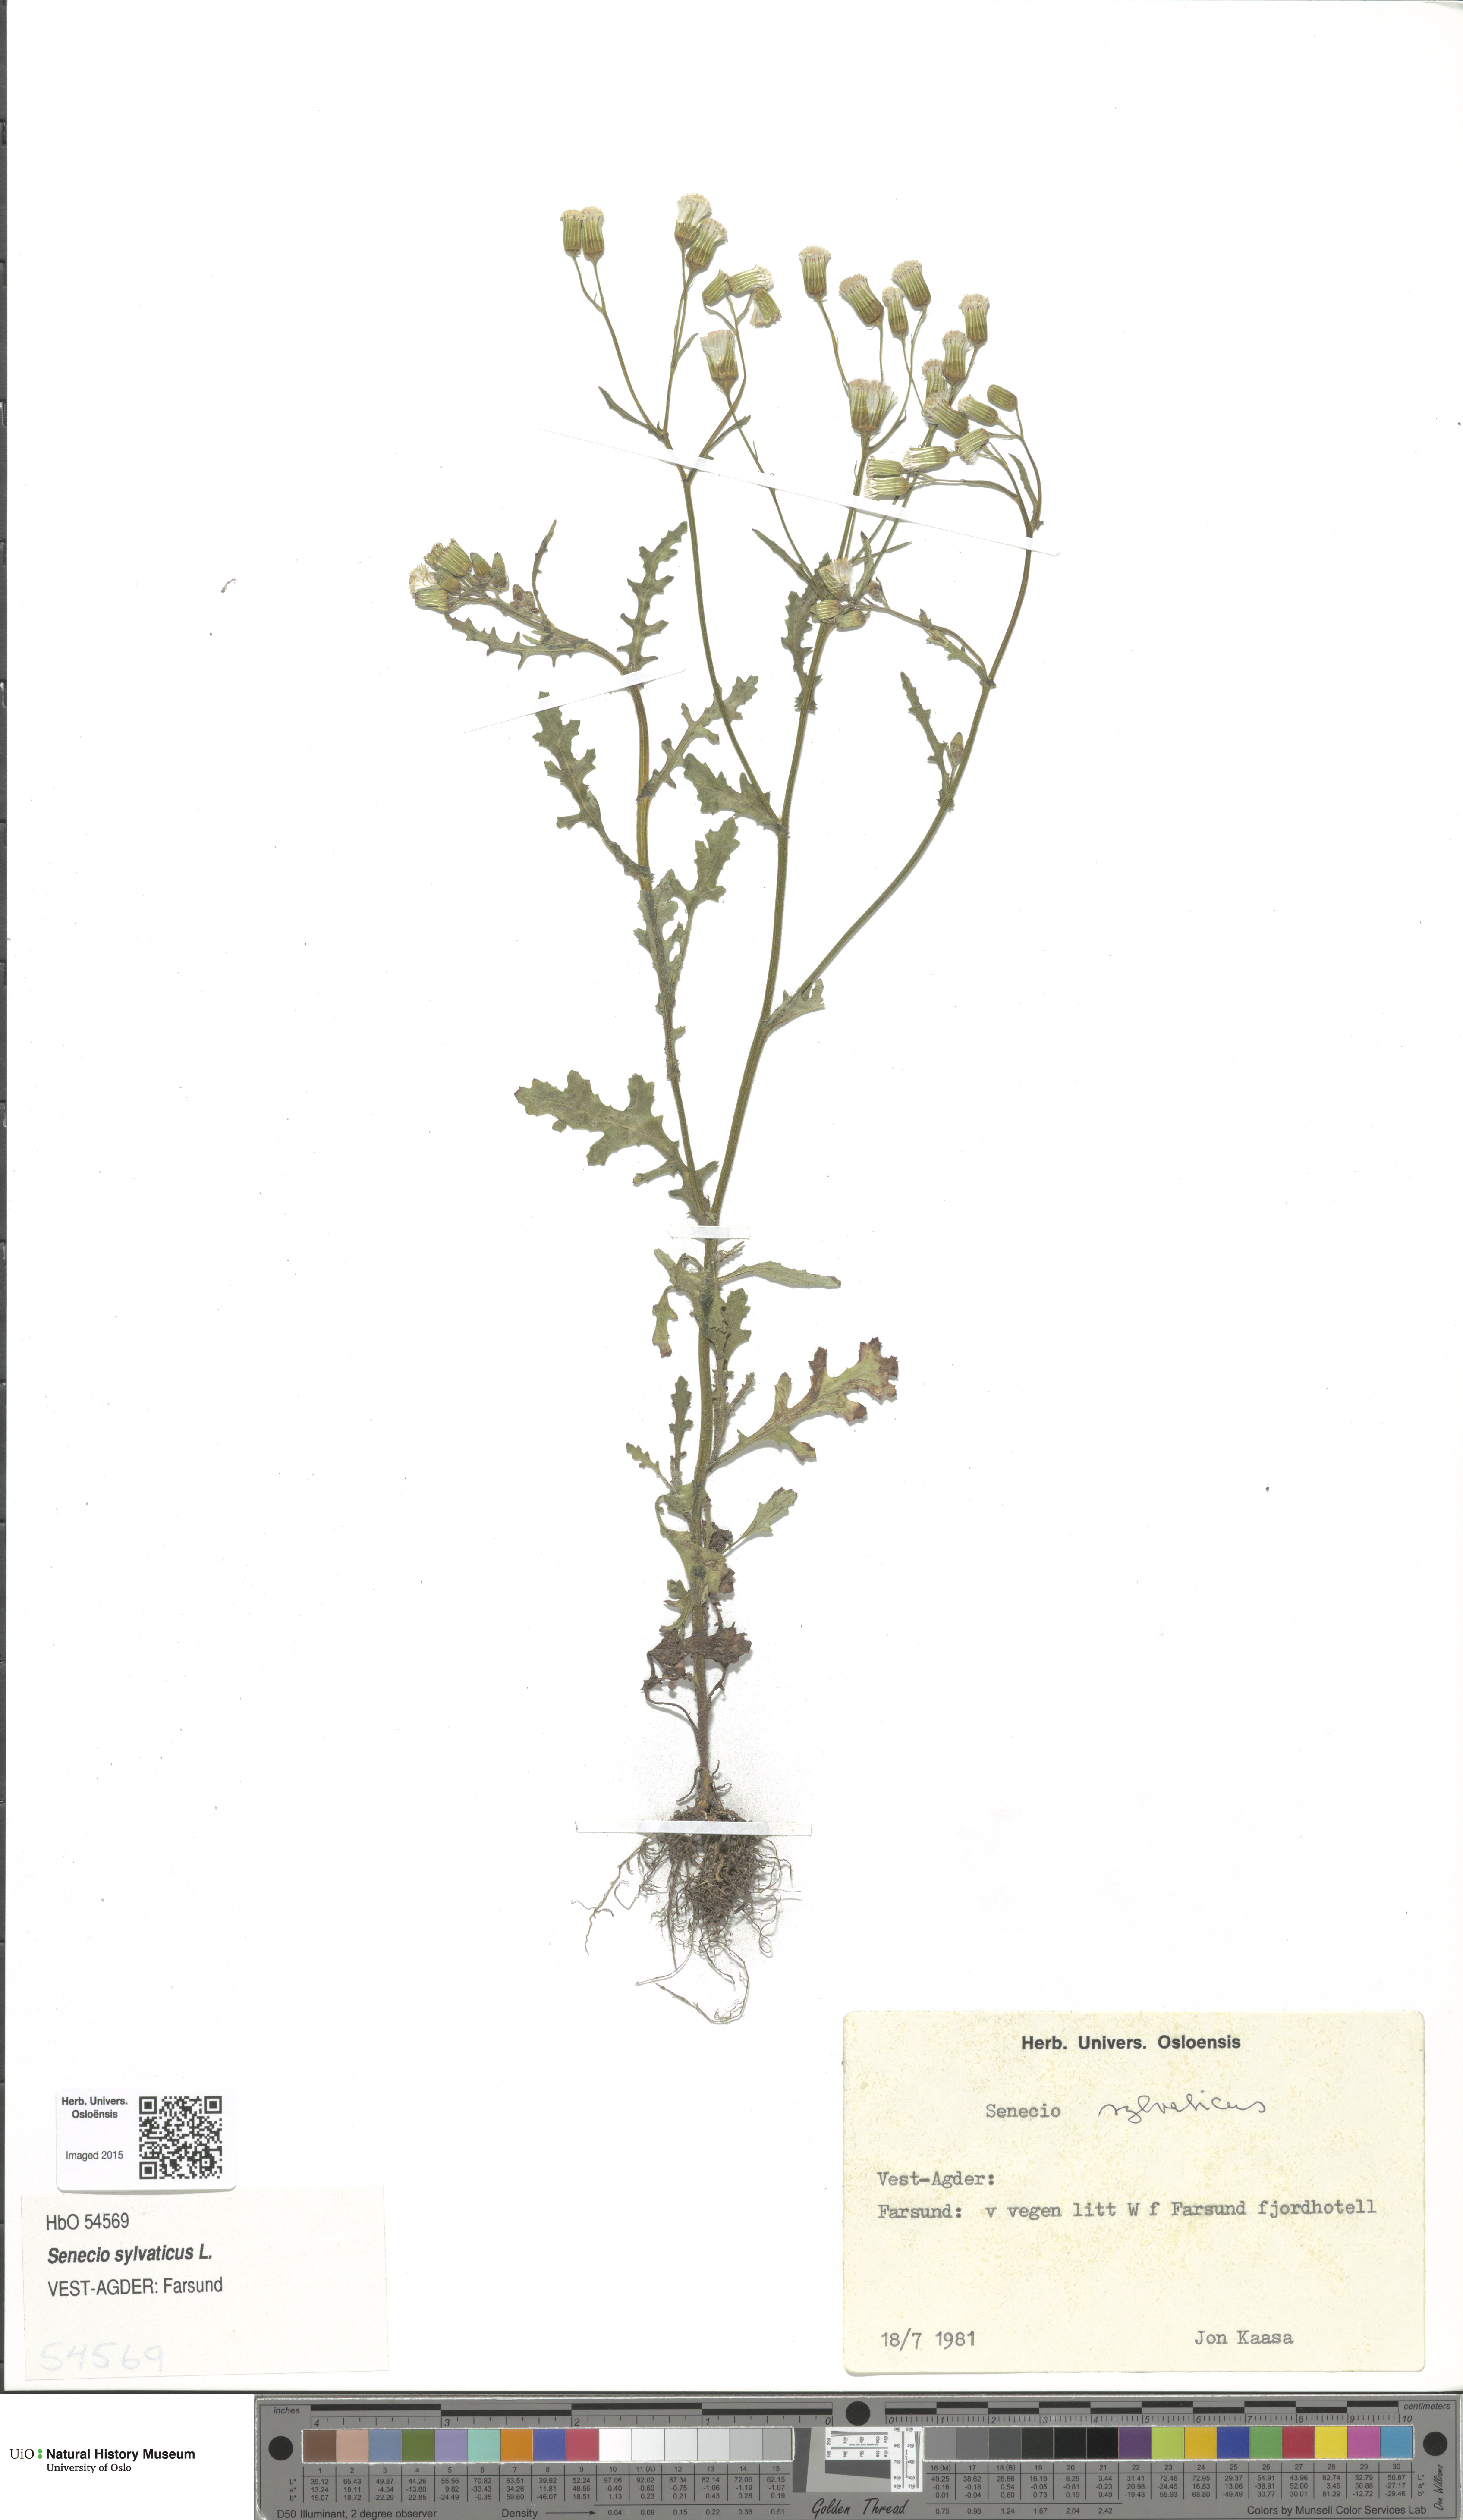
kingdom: Plantae
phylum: Tracheophyta
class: Magnoliopsida
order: Asterales
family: Asteraceae
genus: Senecio
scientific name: Senecio sylvaticus
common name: Woodland ragwort
